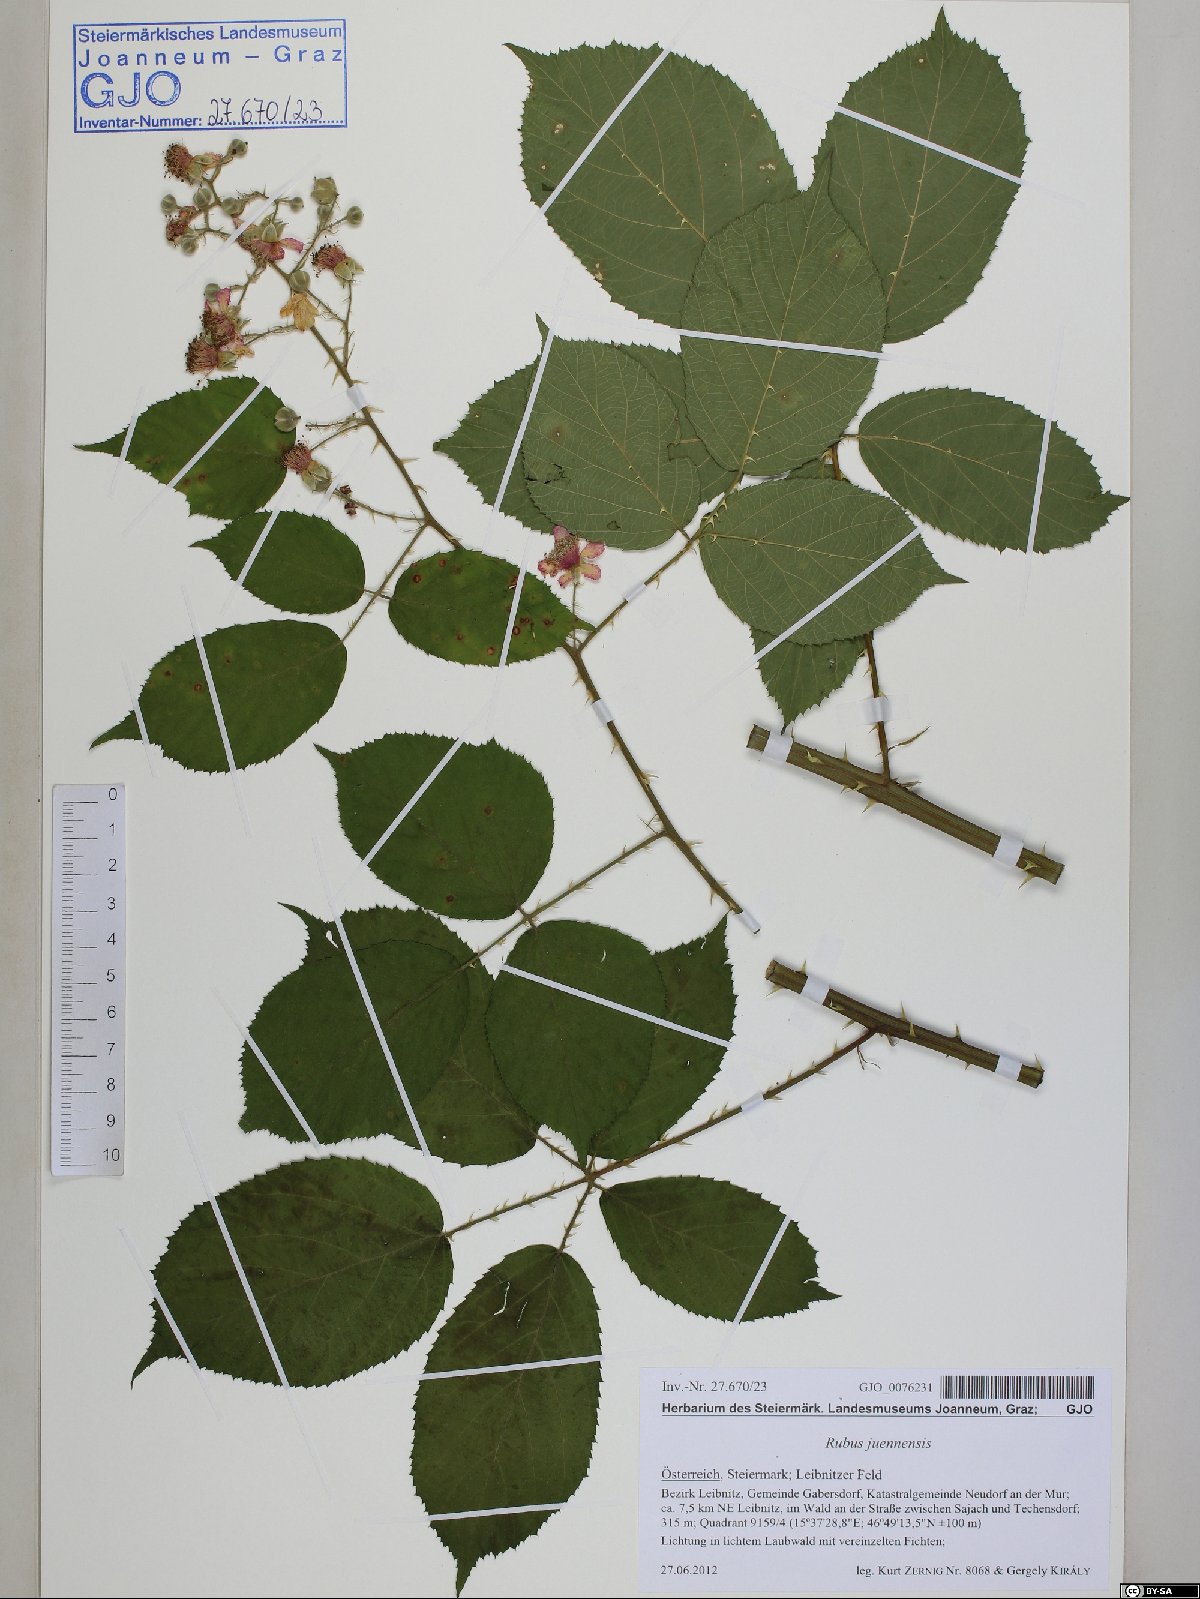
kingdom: Plantae
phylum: Tracheophyta
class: Magnoliopsida
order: Rosales
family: Rosaceae
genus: Rubus
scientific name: Rubus juennensis
